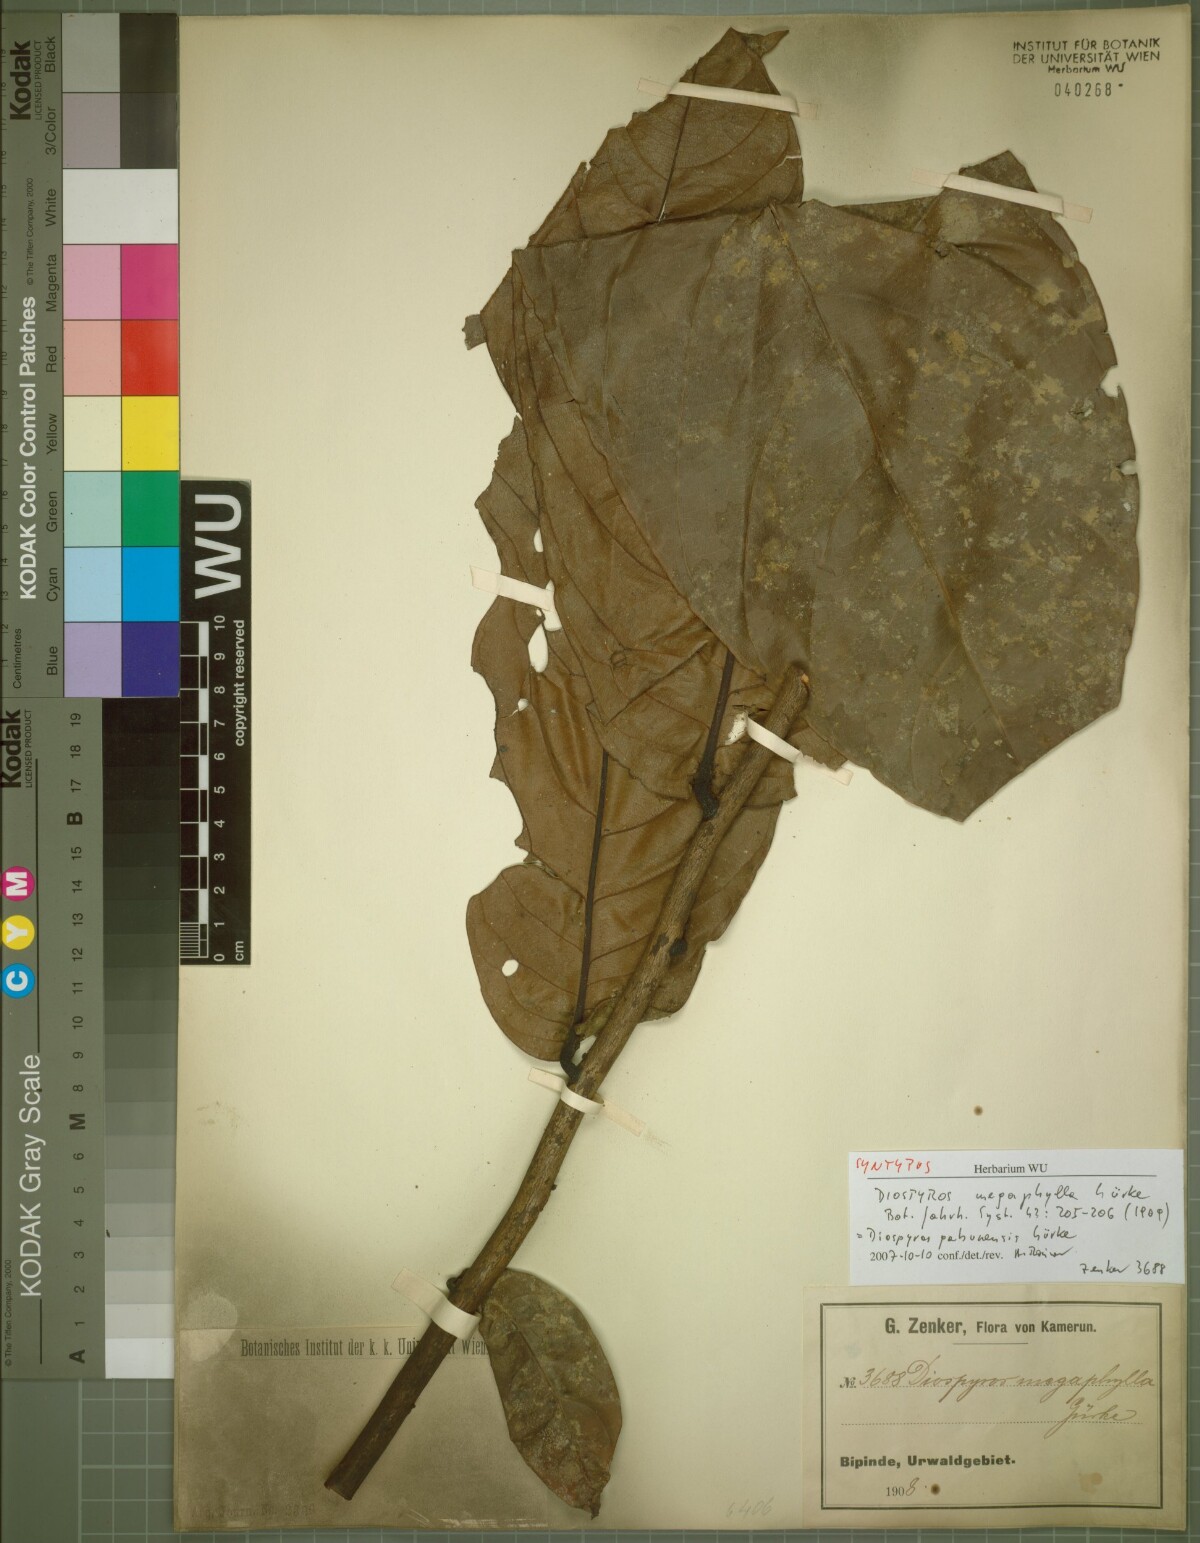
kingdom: Plantae
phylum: Tracheophyta
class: Magnoliopsida
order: Ericales
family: Ebenaceae
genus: Diospyros
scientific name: Diospyros gabunensis
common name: Flint bark tree
